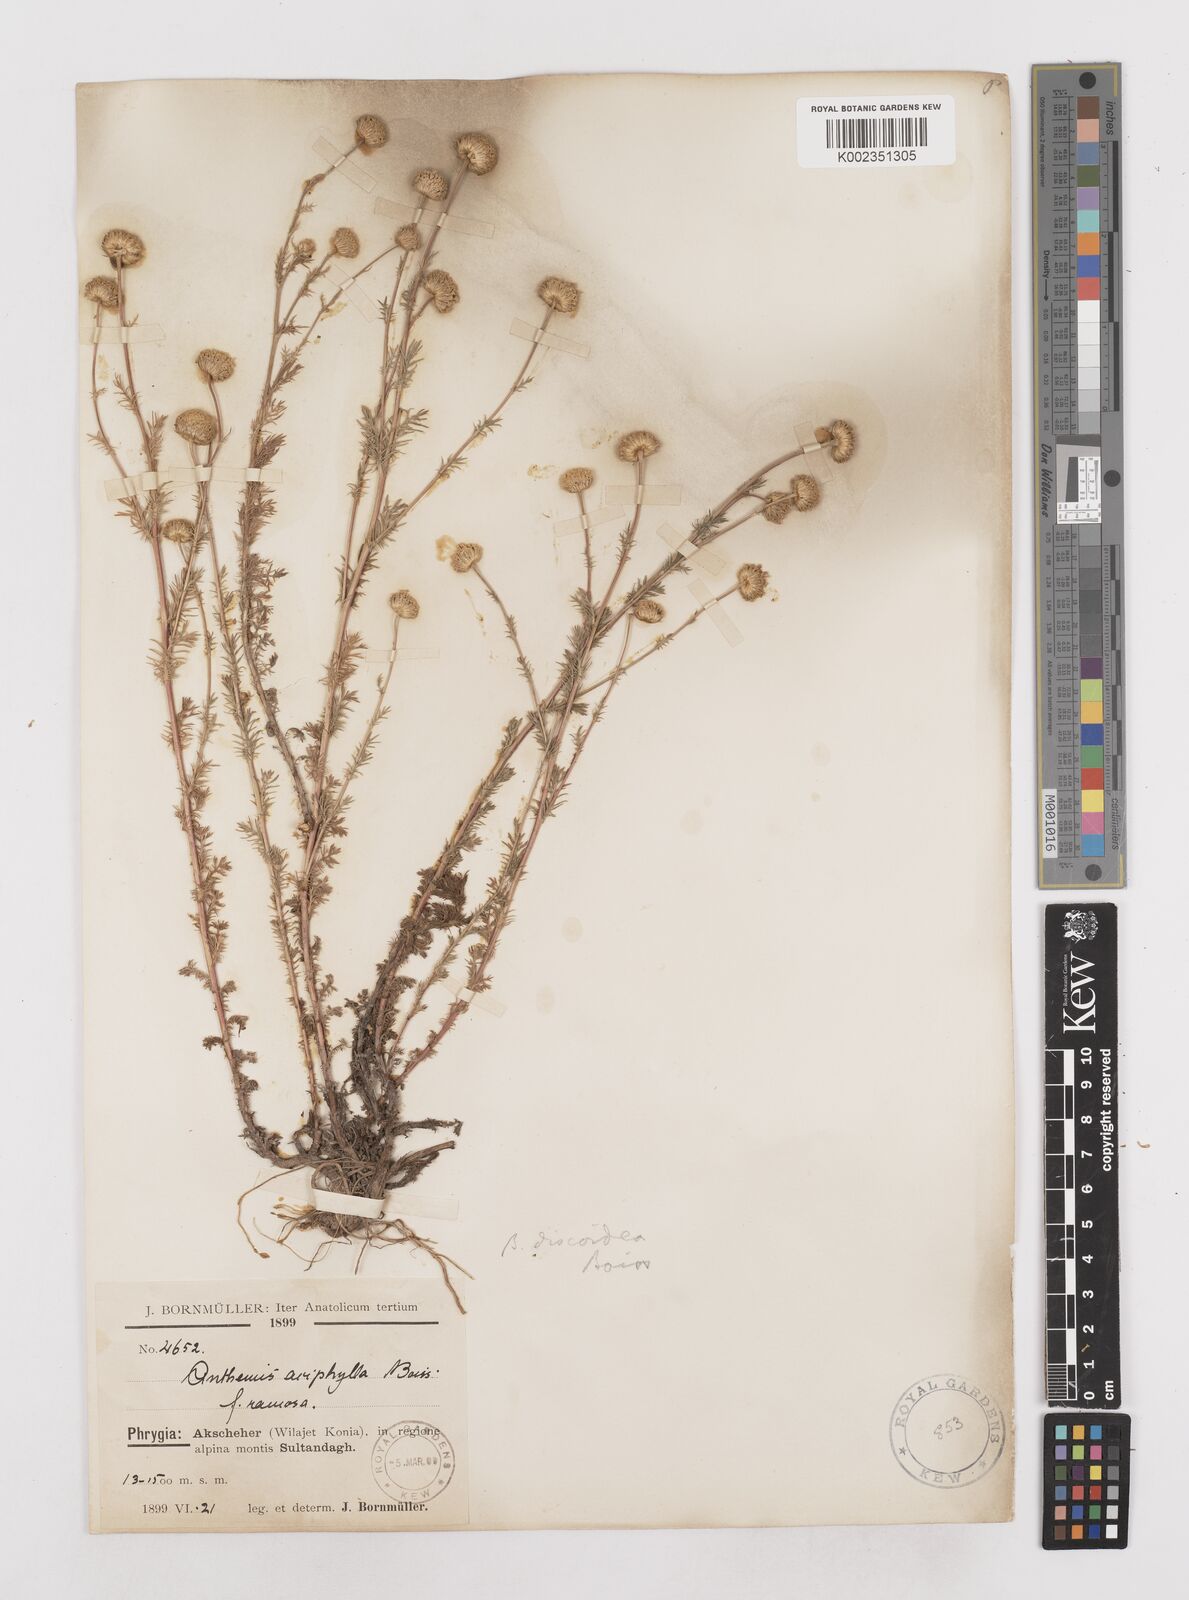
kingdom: Plantae
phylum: Tracheophyta
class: Magnoliopsida
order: Asterales
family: Asteraceae
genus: Anthemis
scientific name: Anthemis aciphylla
